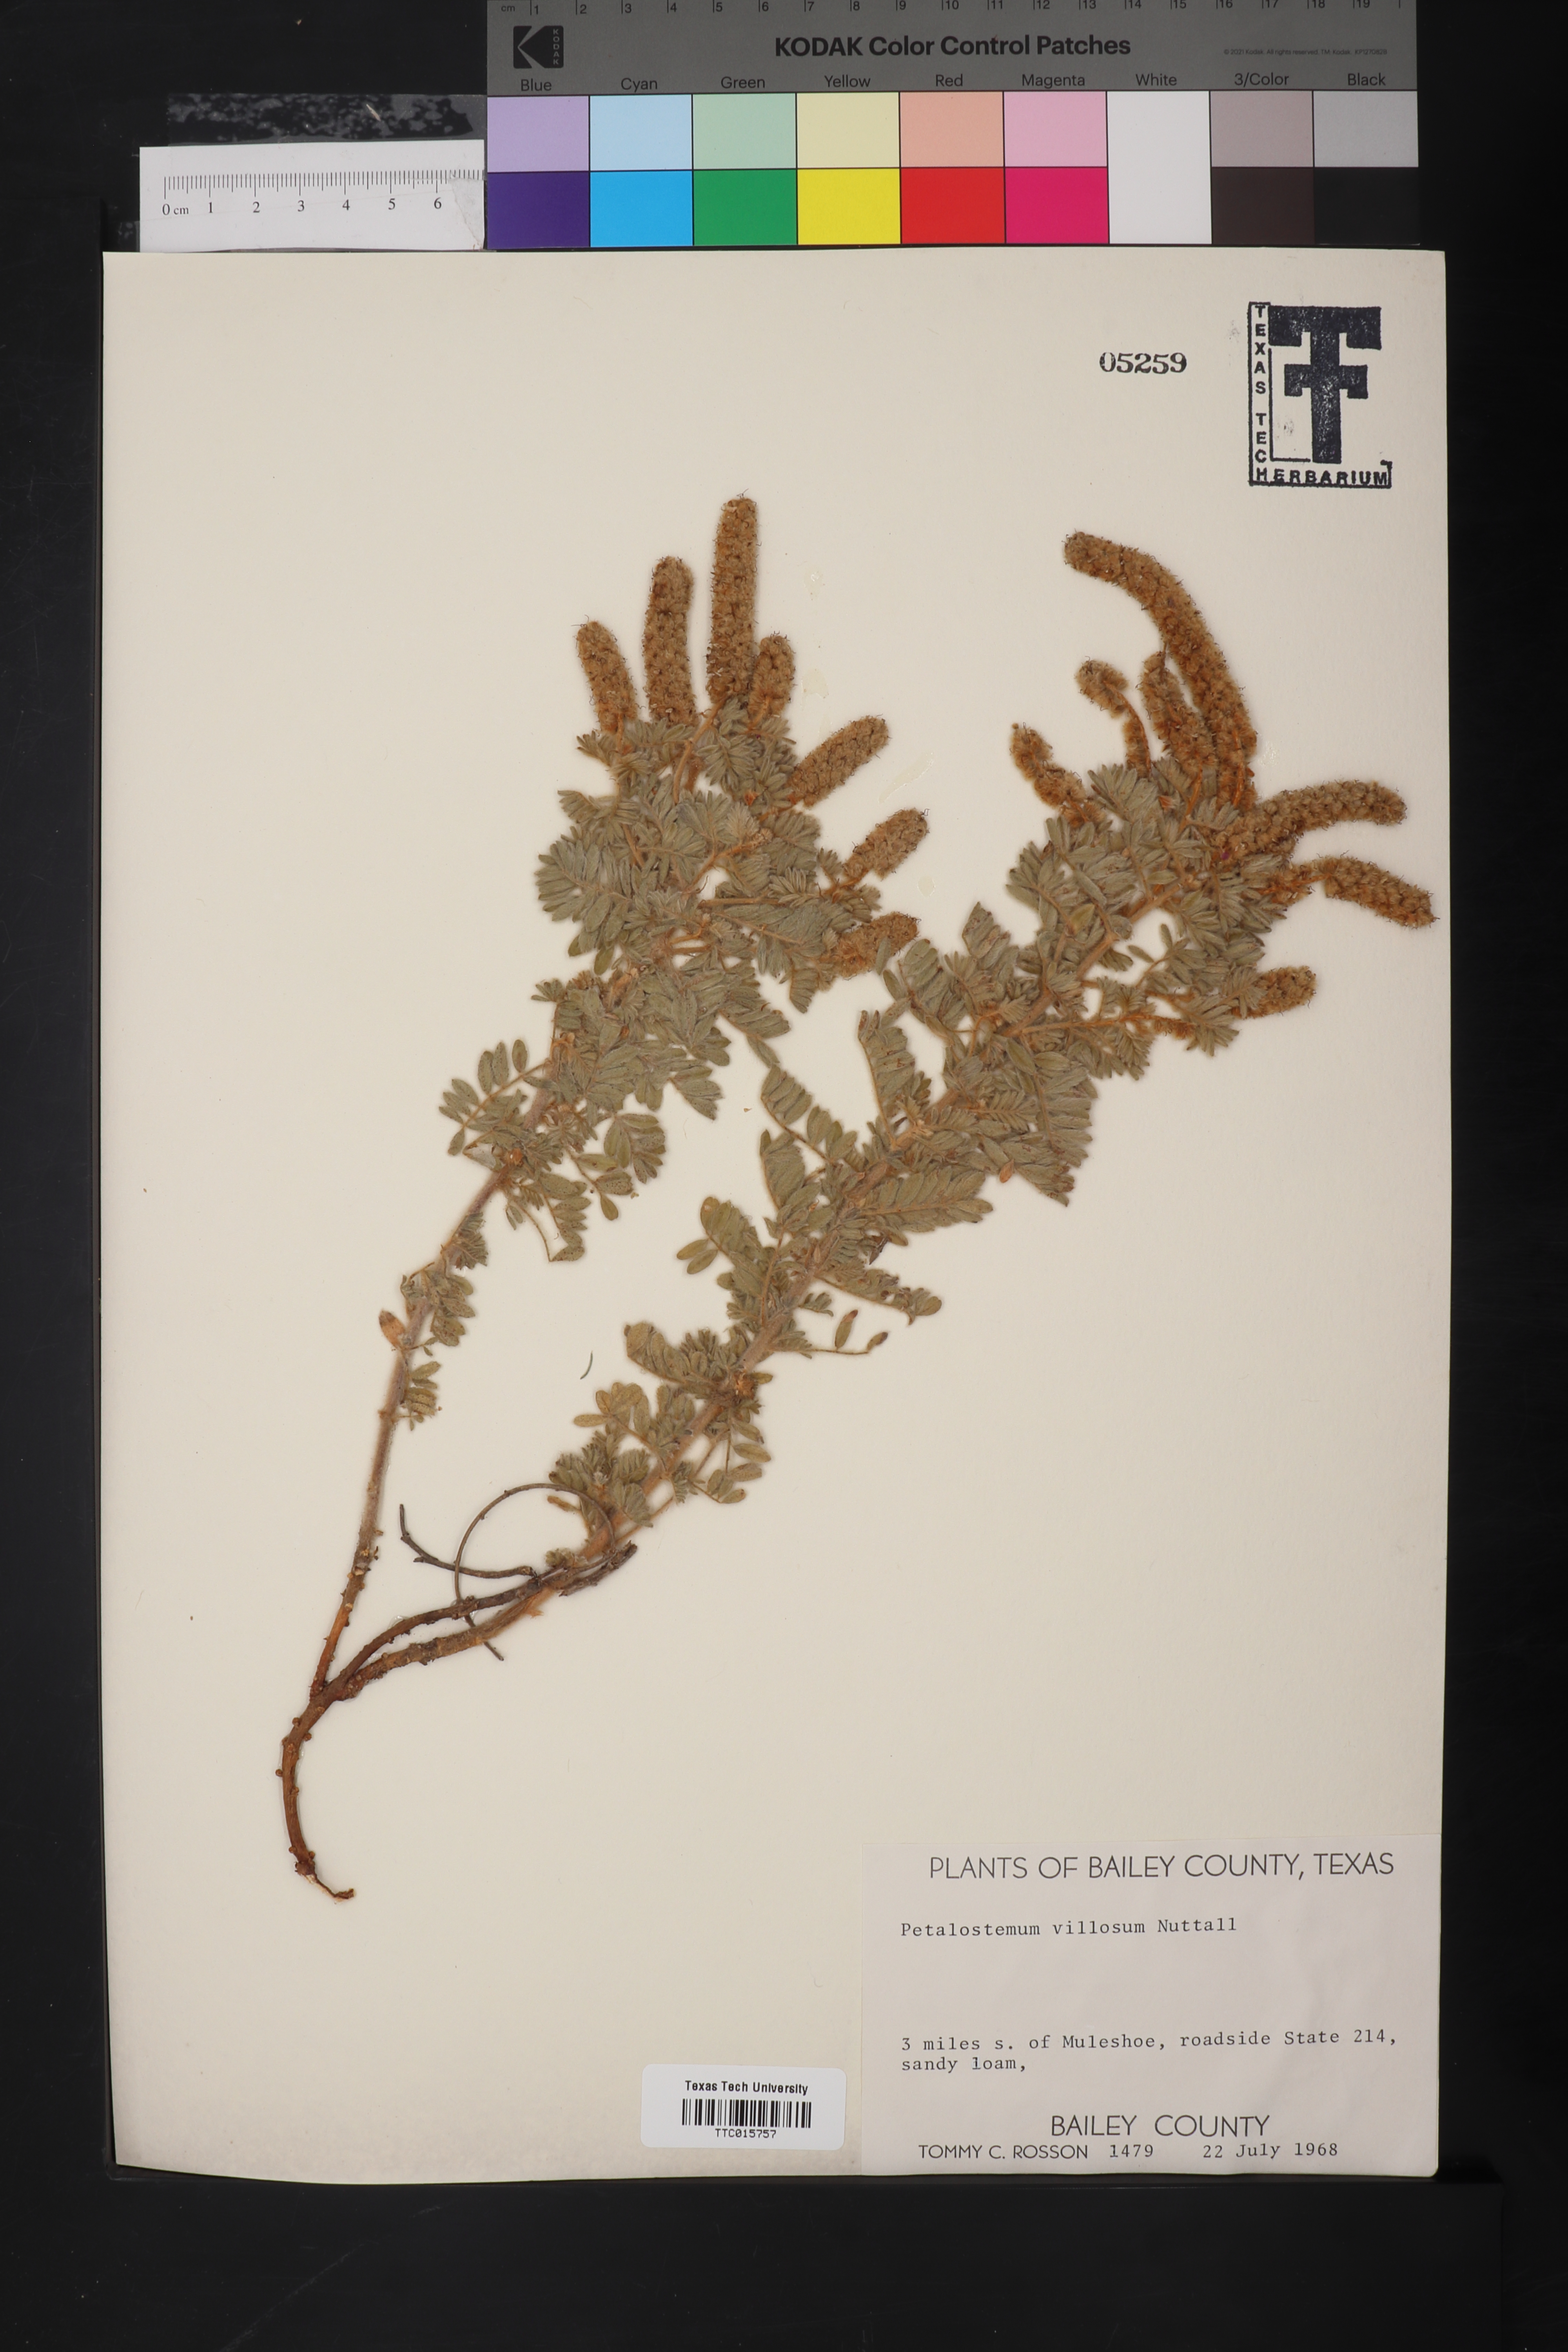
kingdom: Plantae
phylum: Tracheophyta
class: Magnoliopsida
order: Fabales
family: Fabaceae
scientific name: Fabaceae
